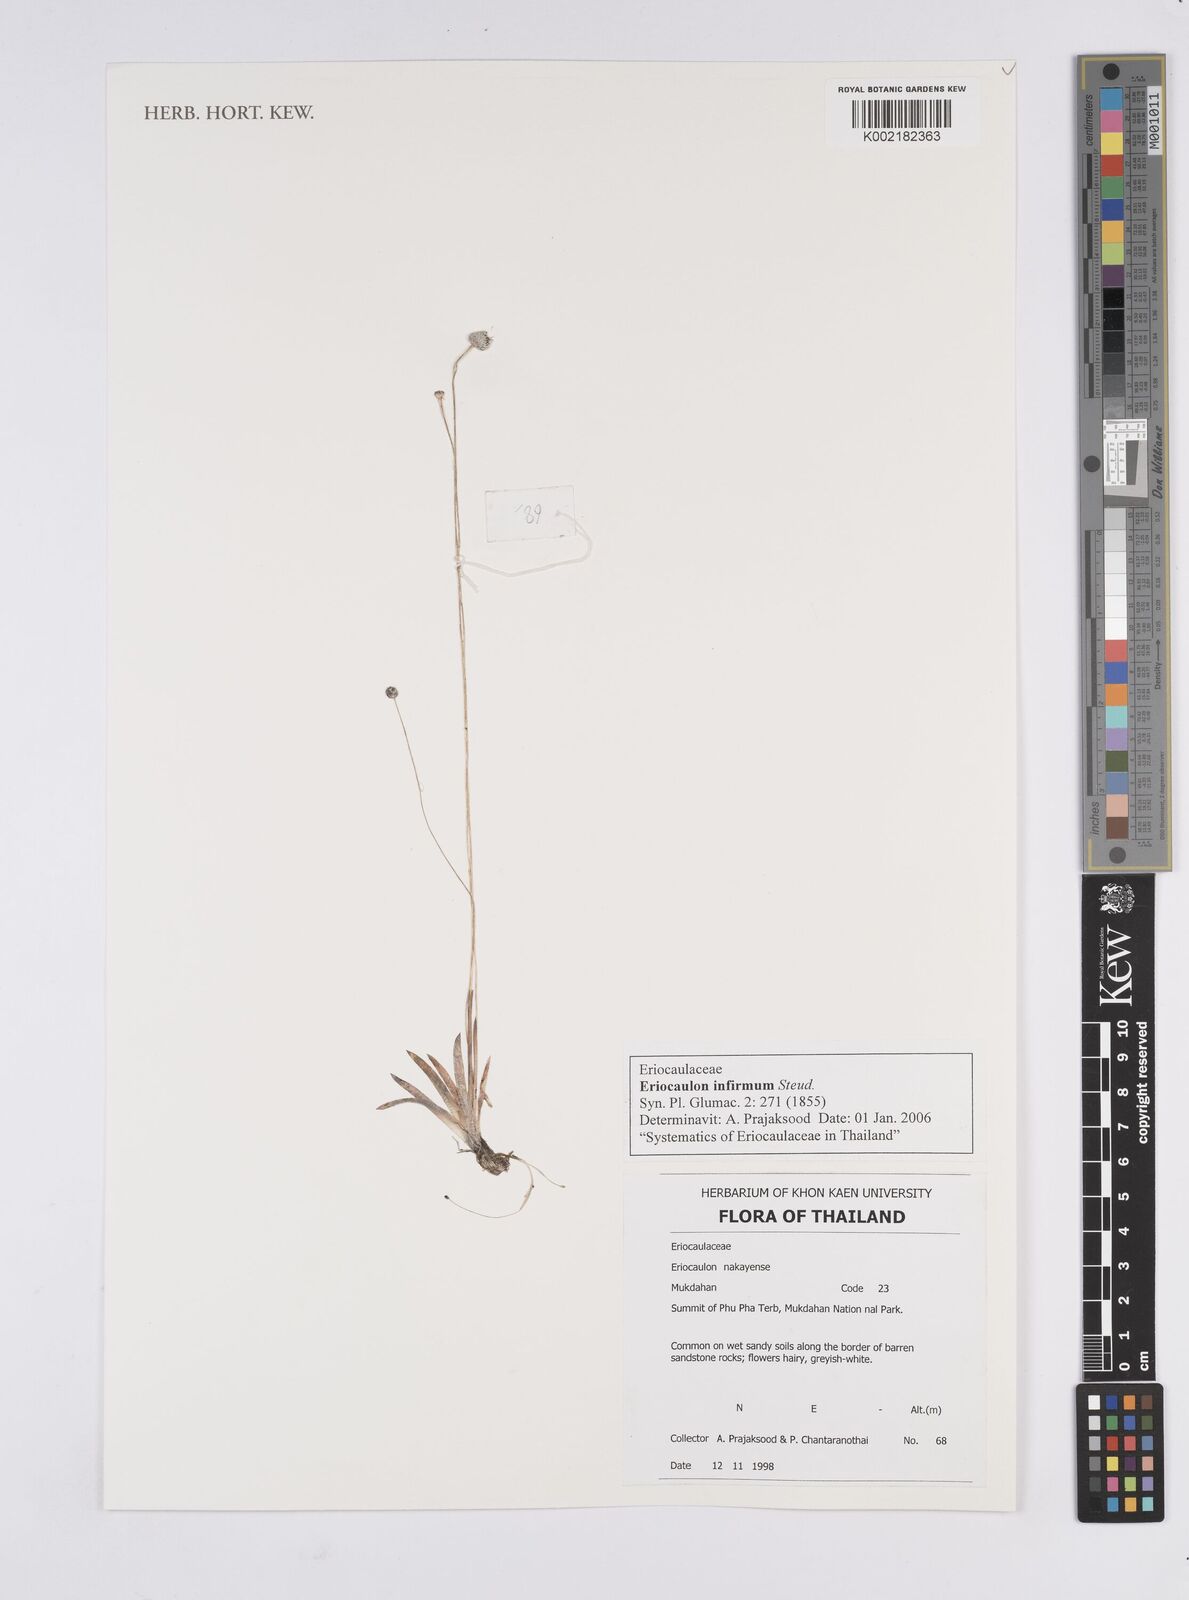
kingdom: Plantae
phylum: Tracheophyta
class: Liliopsida
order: Poales
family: Eriocaulaceae
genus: Eriocaulon
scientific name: Eriocaulon infirmum
